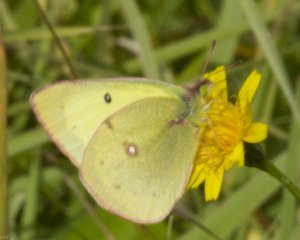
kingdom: Animalia
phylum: Arthropoda
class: Insecta
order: Lepidoptera
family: Pieridae
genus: Colias
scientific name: Colias philodice
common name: Clouded Sulphur
